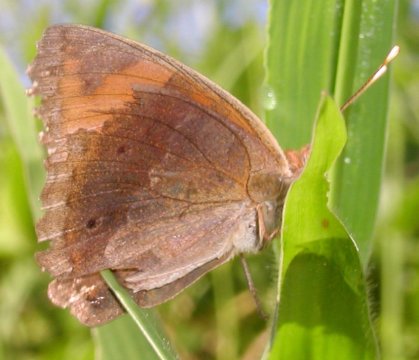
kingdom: Animalia
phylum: Arthropoda
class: Insecta
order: Lepidoptera
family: Nymphalidae
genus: Junonia
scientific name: Junonia lavinia
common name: Tropical Buckeye
